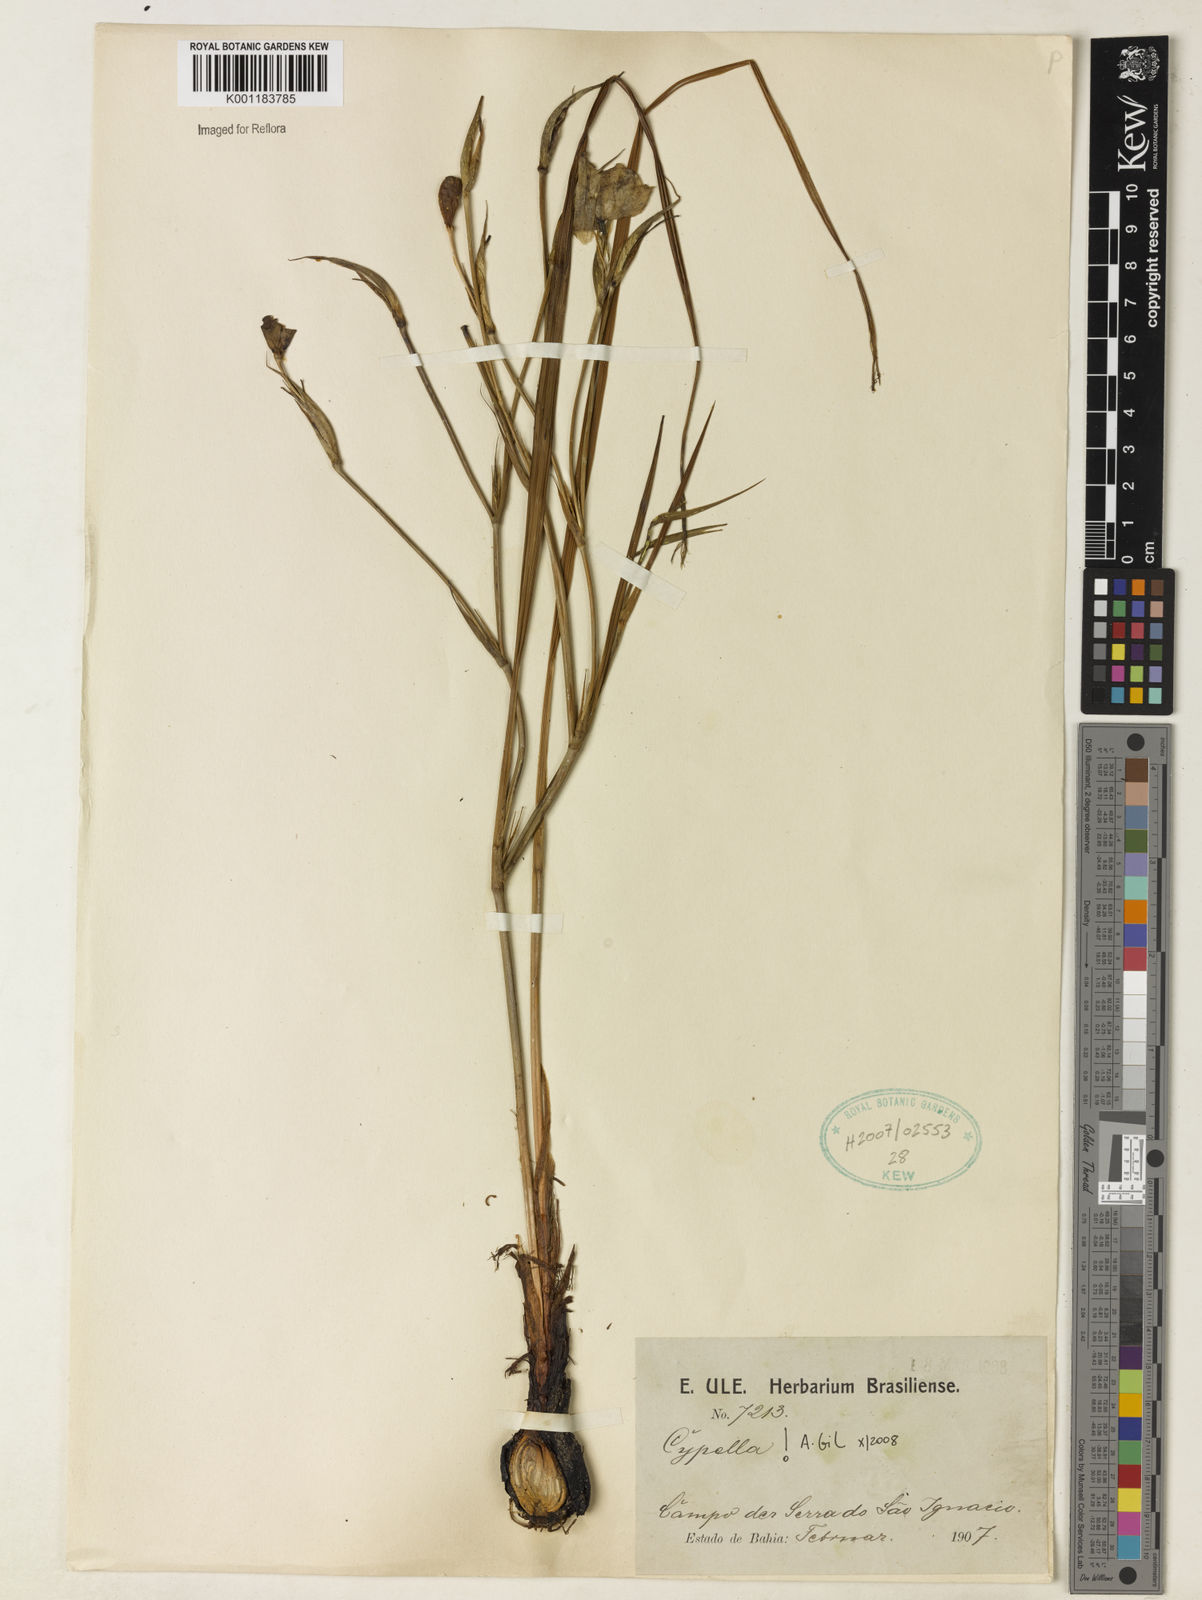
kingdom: Plantae
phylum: Tracheophyta
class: Liliopsida
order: Asparagales
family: Iridaceae
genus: Cypella
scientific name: Cypella
